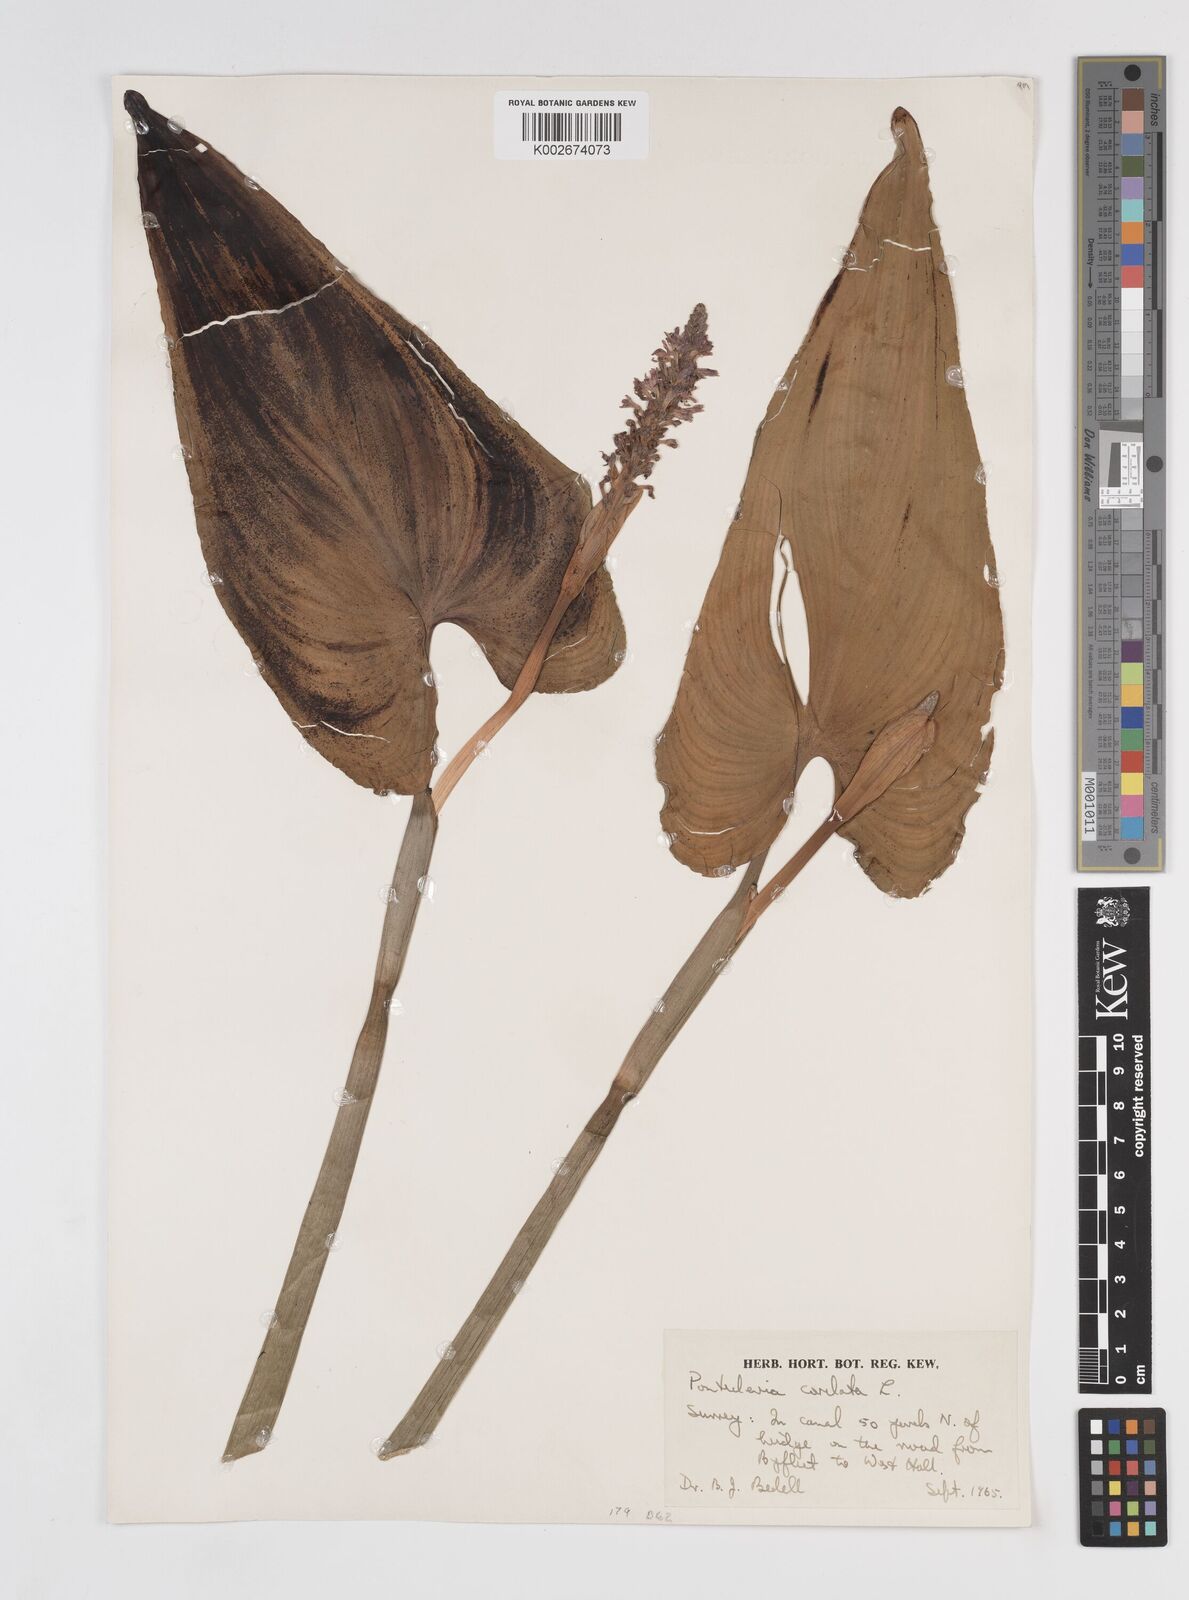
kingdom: Plantae
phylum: Tracheophyta
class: Liliopsida
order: Commelinales
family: Pontederiaceae
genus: Pontederia
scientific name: Pontederia cordata
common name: Pickerelweed
